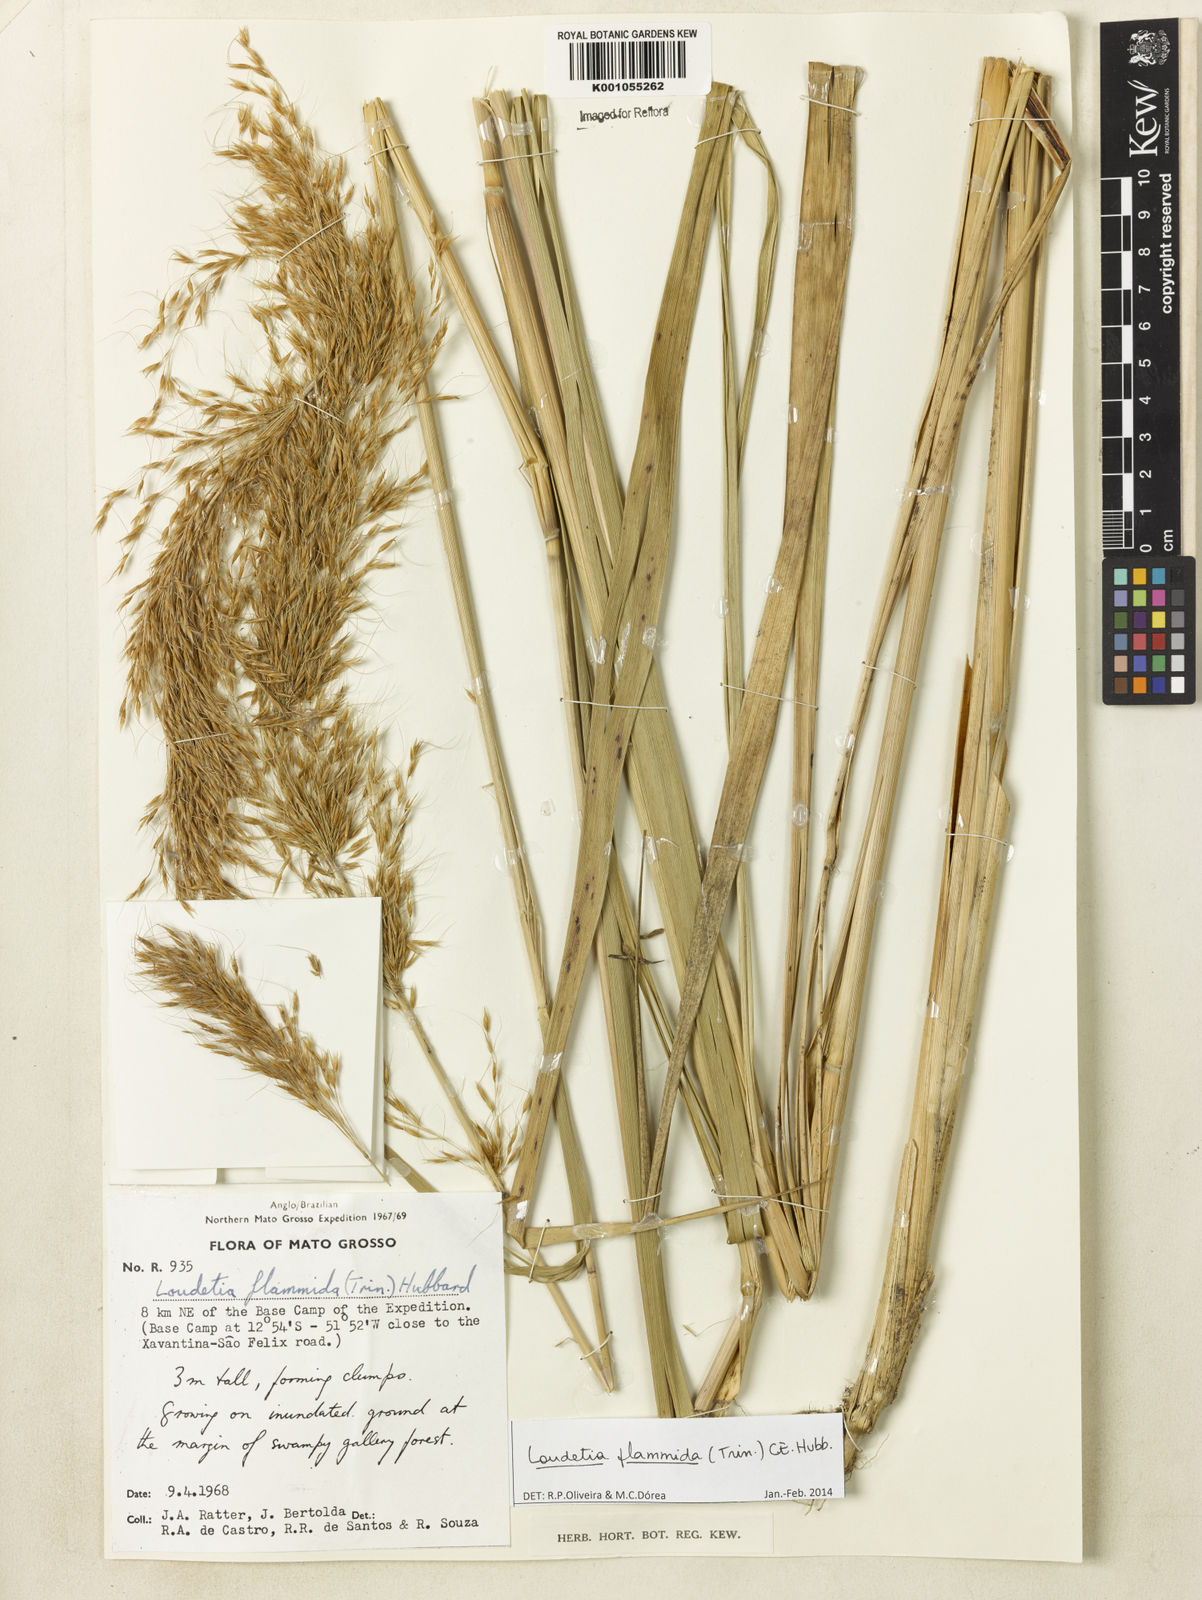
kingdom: Plantae
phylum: Tracheophyta
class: Liliopsida
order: Poales
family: Poaceae
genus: Loudetia
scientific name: Loudetia flammida
